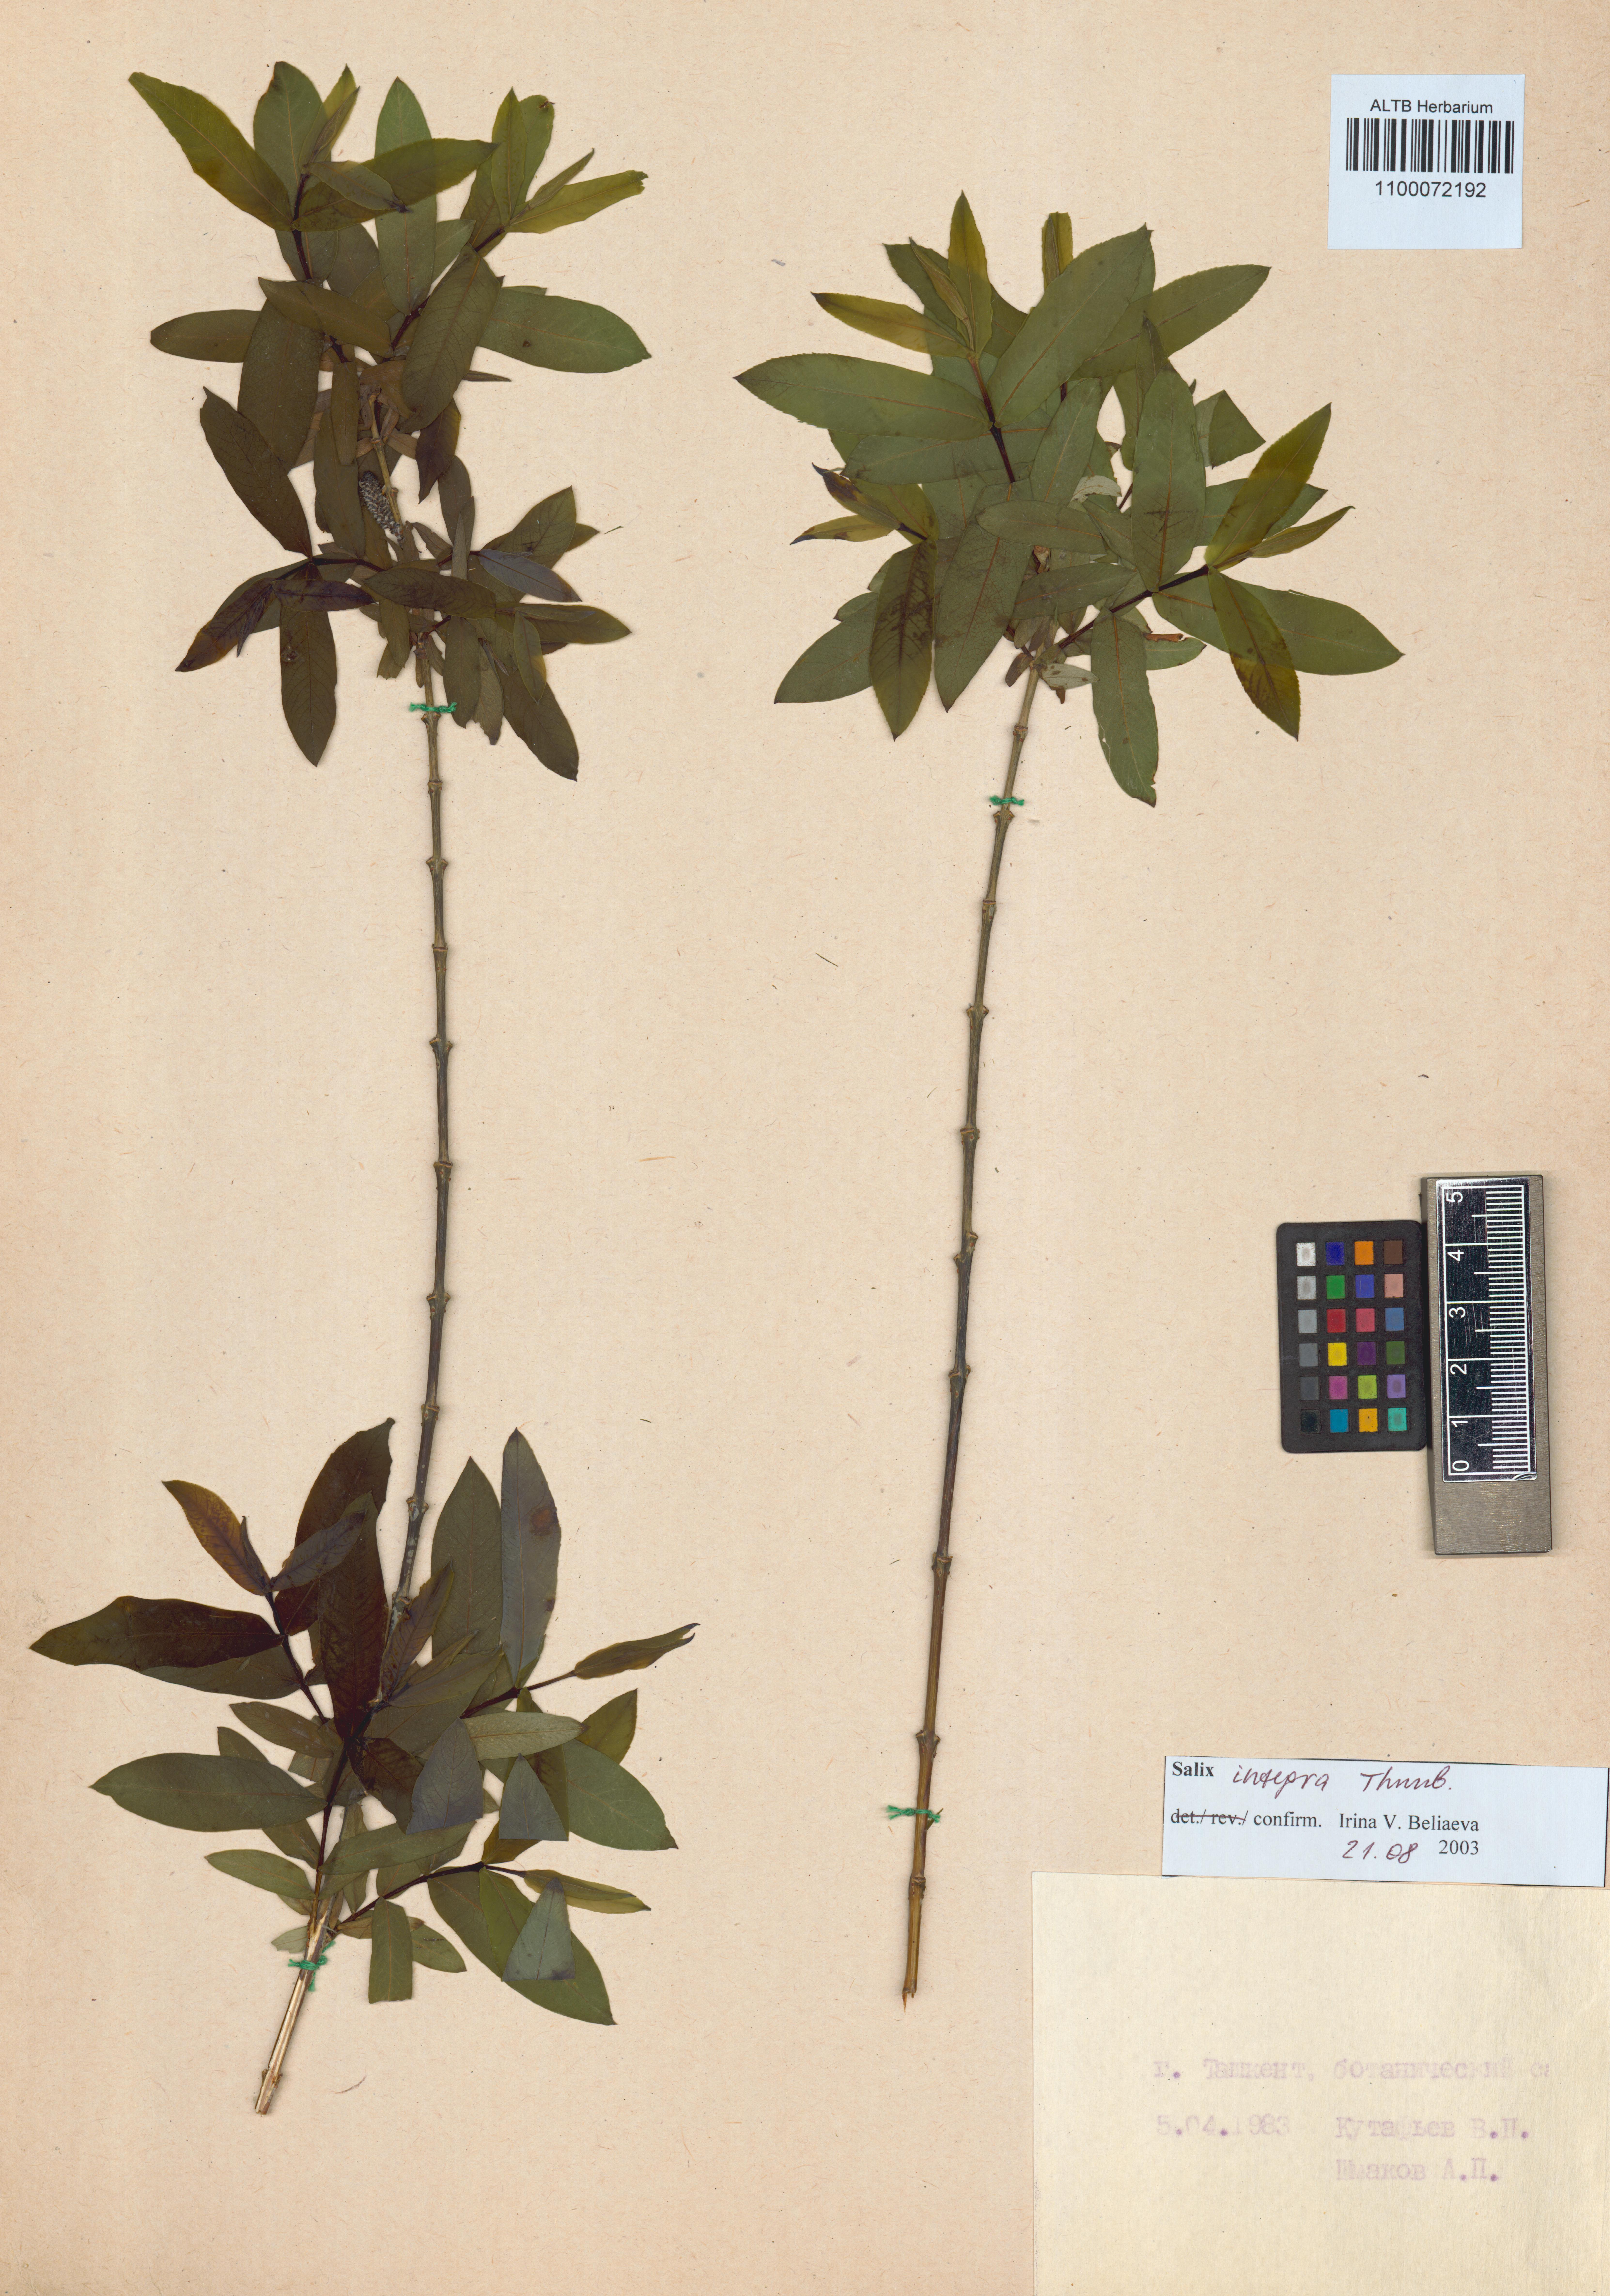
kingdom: Plantae
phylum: Tracheophyta
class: Magnoliopsida
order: Malpighiales
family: Salicaceae
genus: Salix
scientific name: Salix integra
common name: Dappled willow
